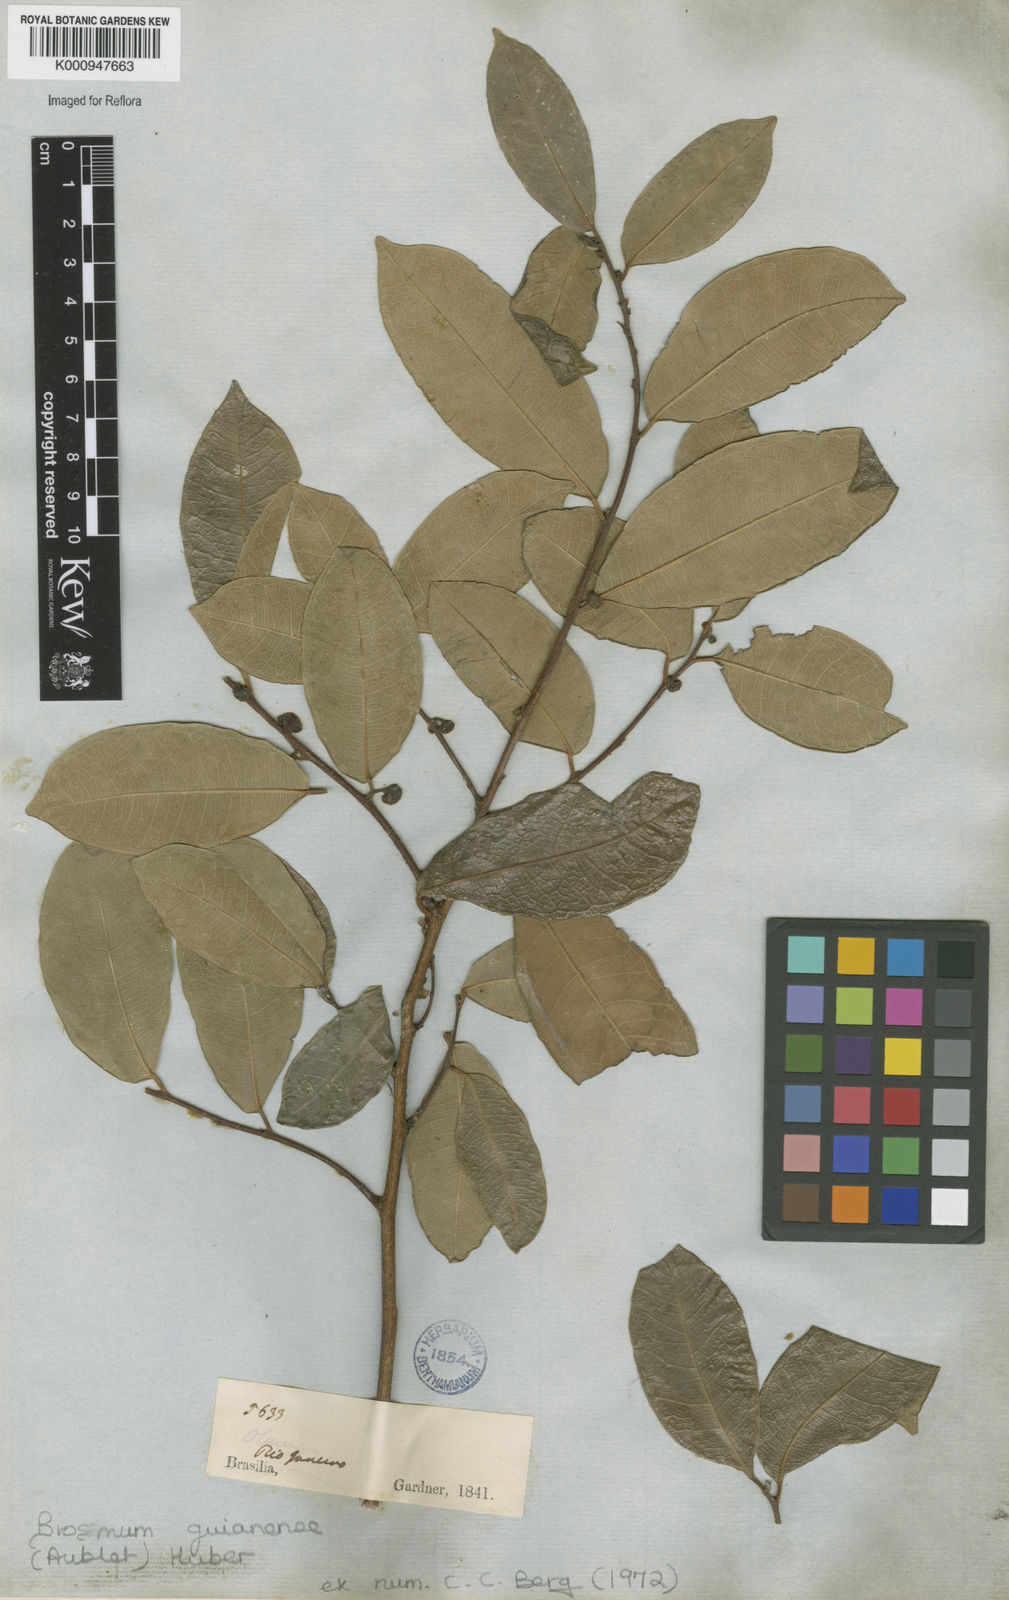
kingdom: Plantae
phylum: Tracheophyta
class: Magnoliopsida
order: Rosales
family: Moraceae
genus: Brosimum
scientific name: Brosimum
